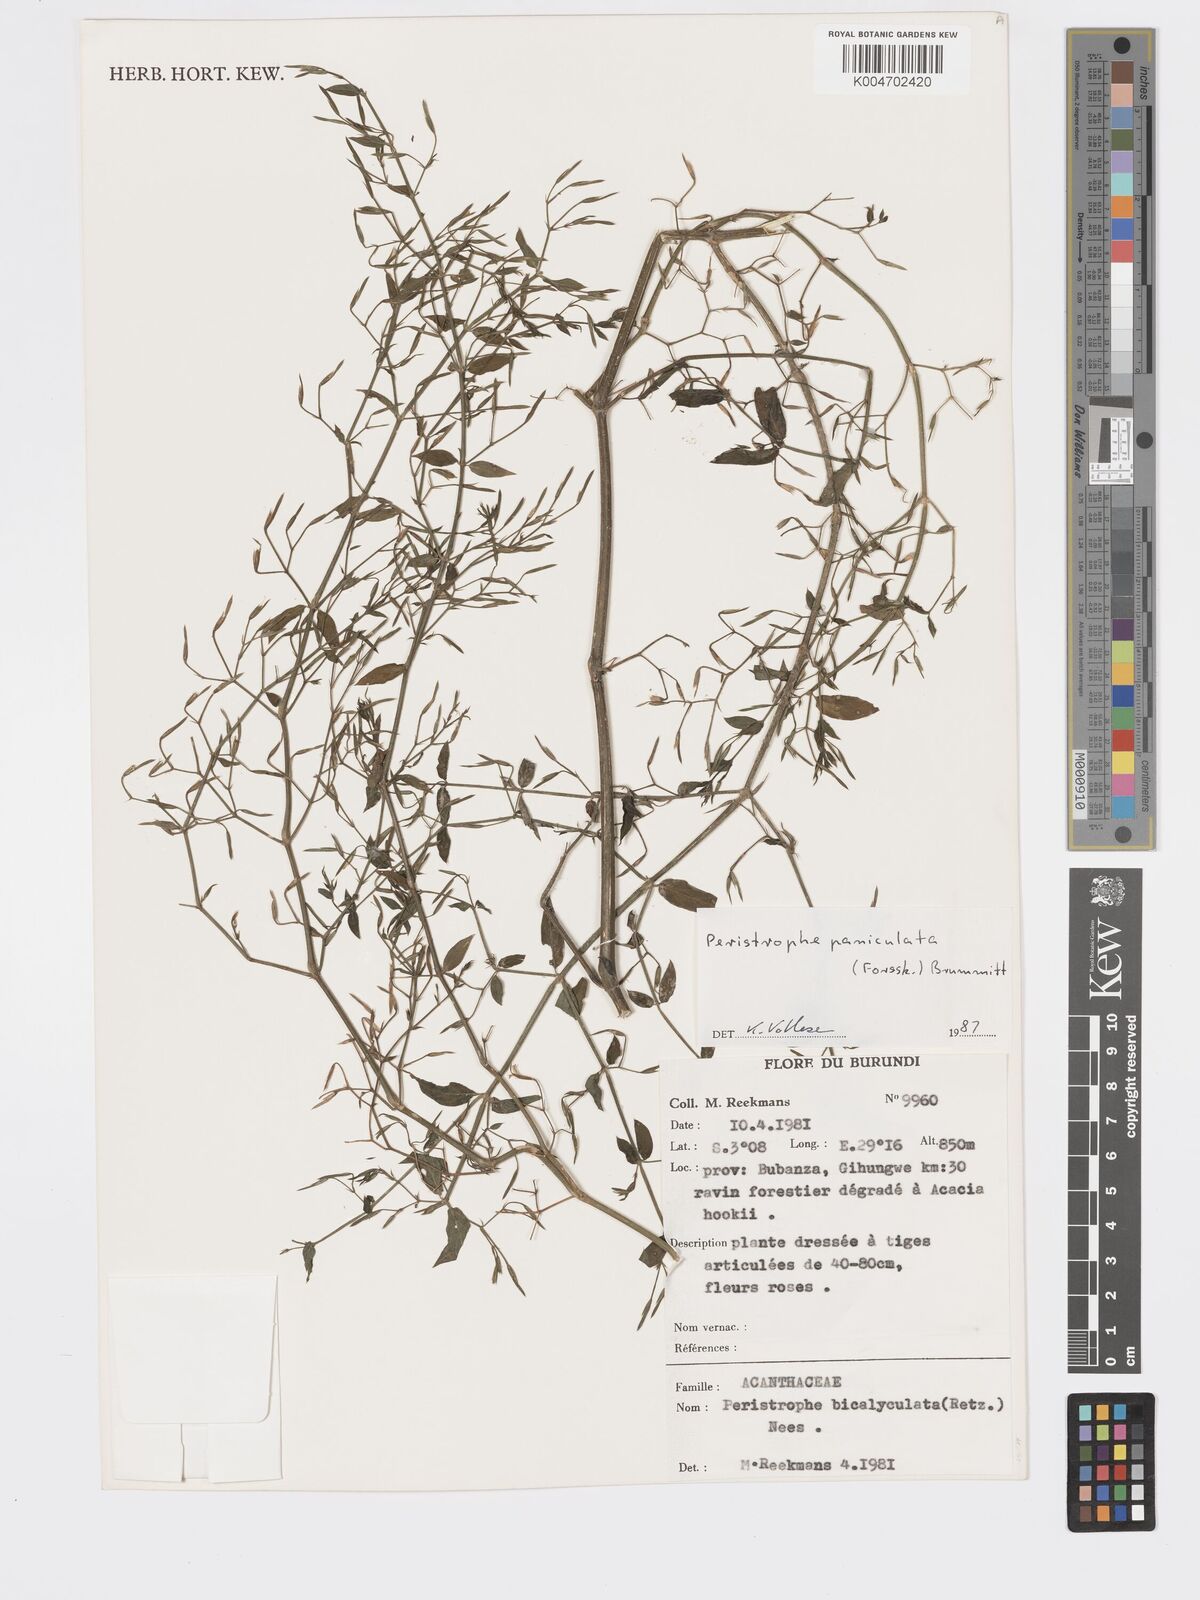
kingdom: Plantae
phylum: Tracheophyta
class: Magnoliopsida
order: Lamiales
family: Acanthaceae
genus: Dicliptera
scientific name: Dicliptera paniculata
